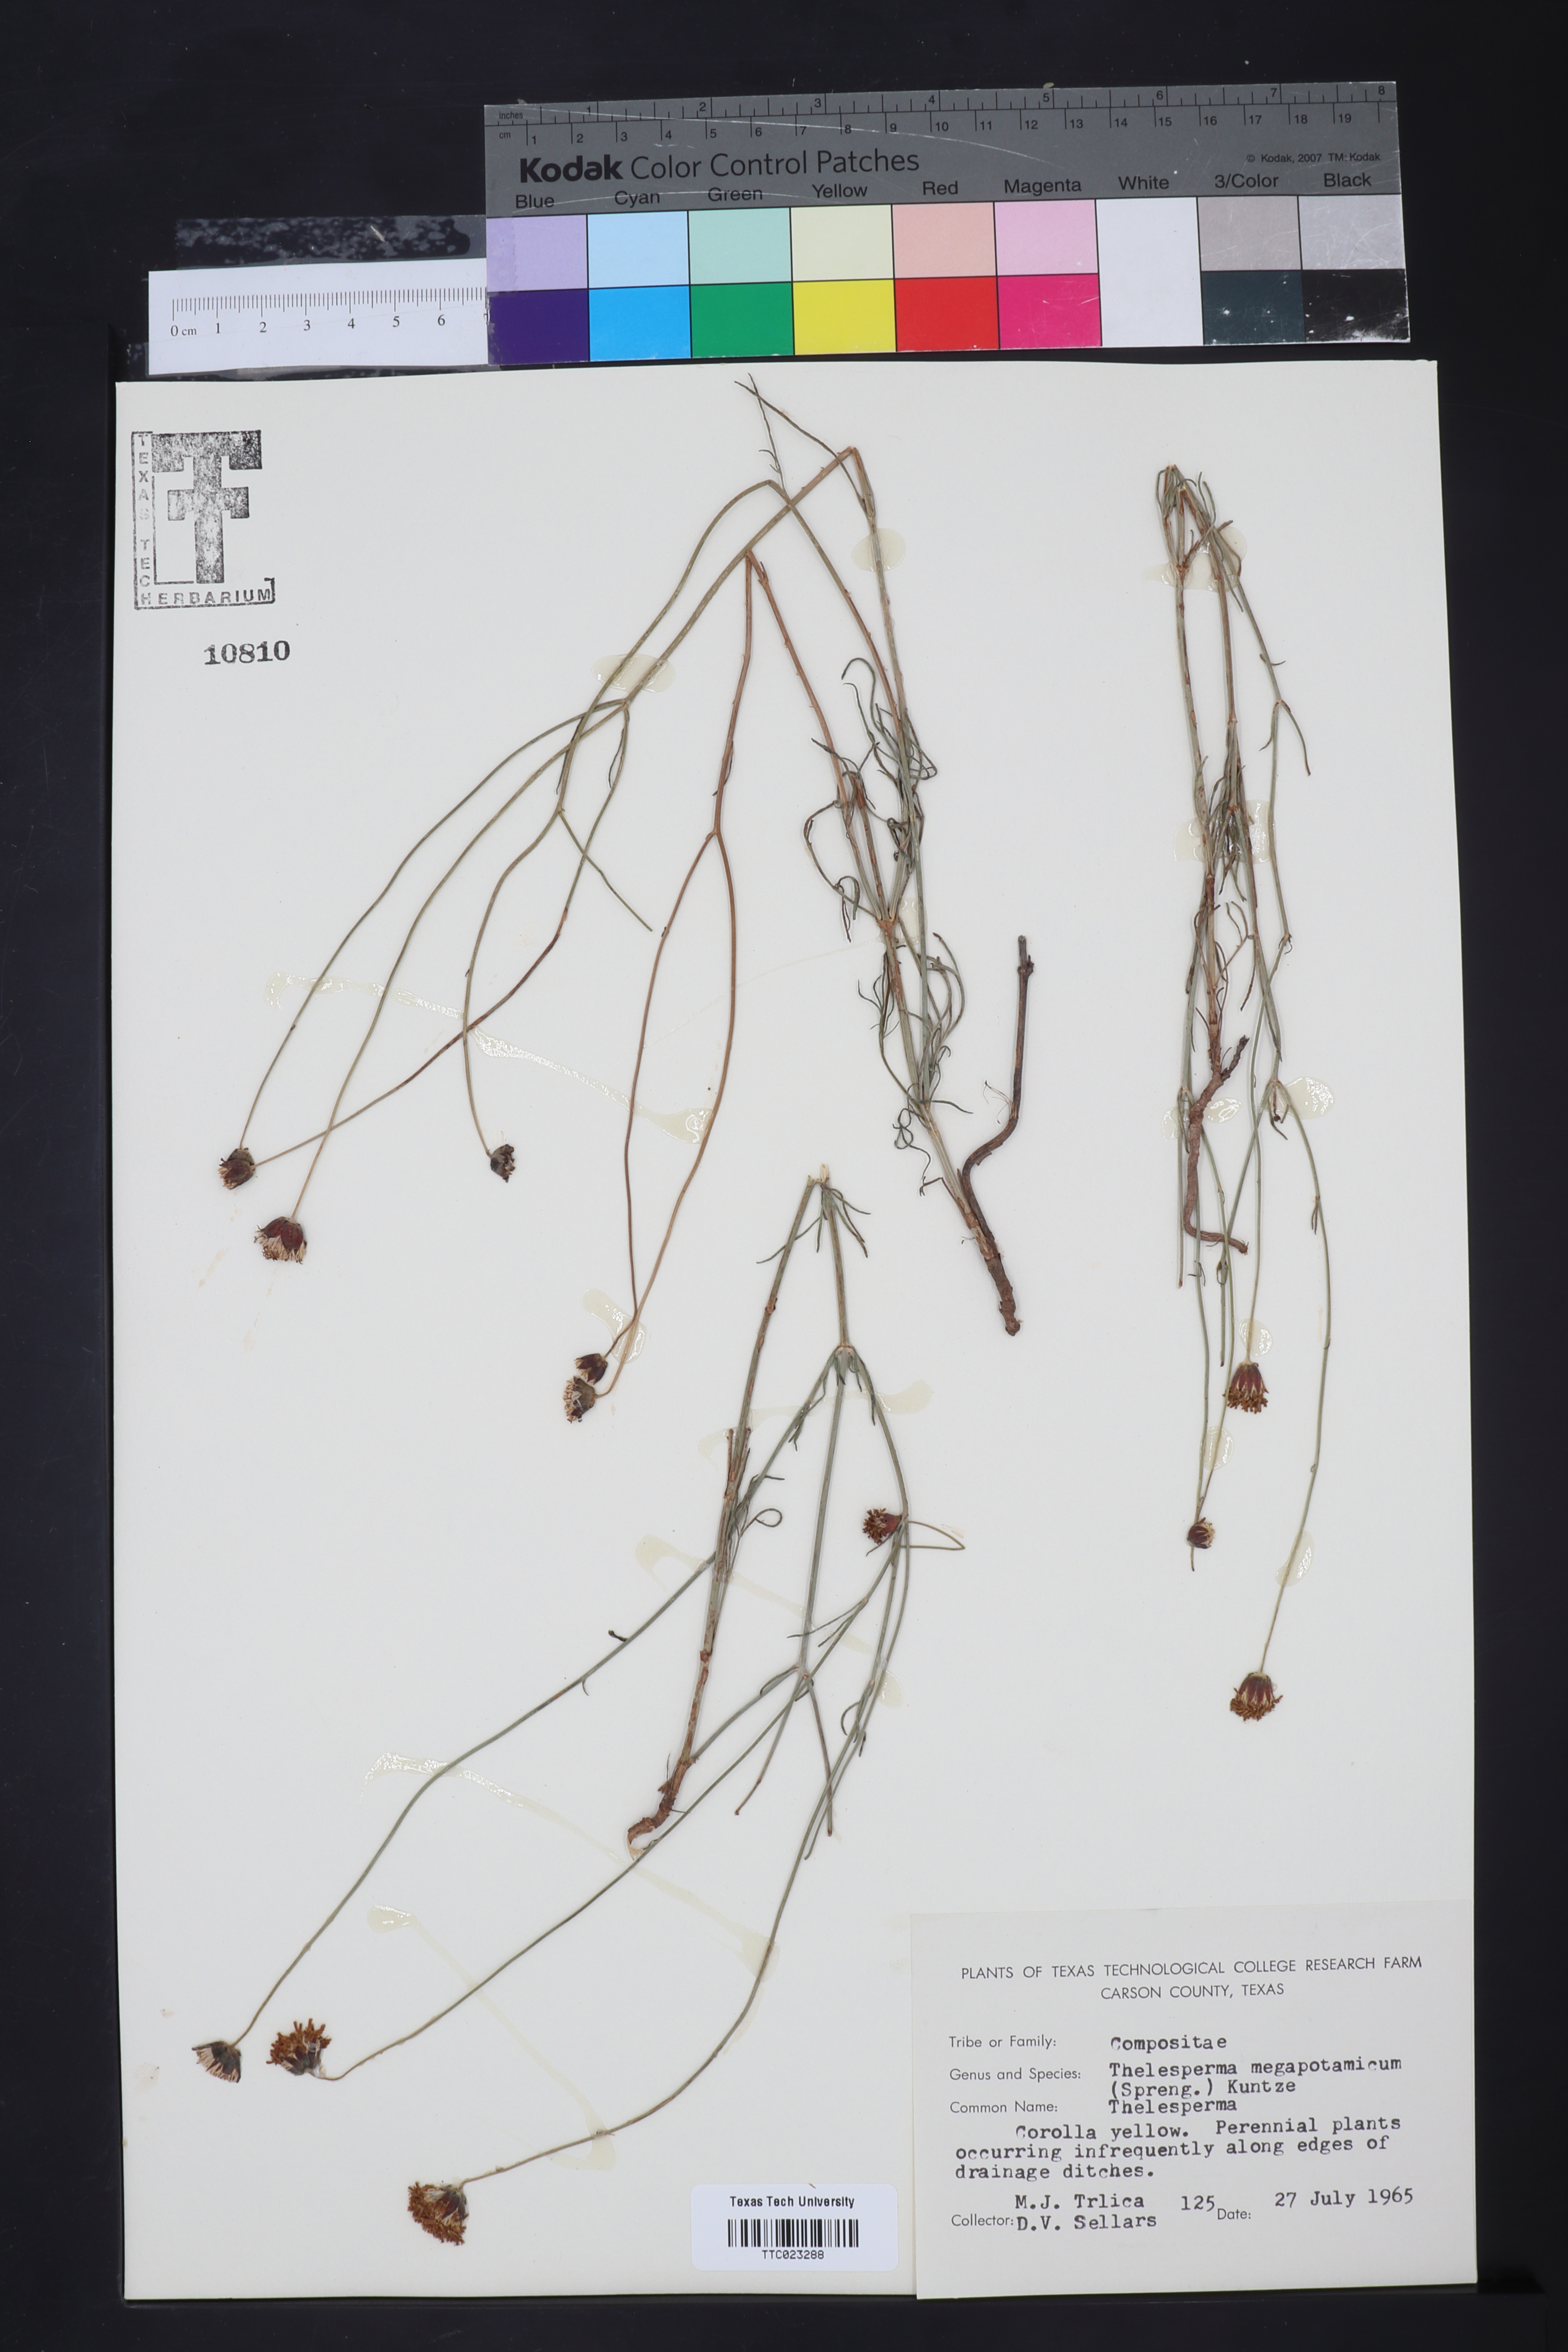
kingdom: Plantae
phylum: Tracheophyta
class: Magnoliopsida
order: Asterales
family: Asteraceae
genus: Thelesperma
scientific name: Thelesperma megapotamicum
